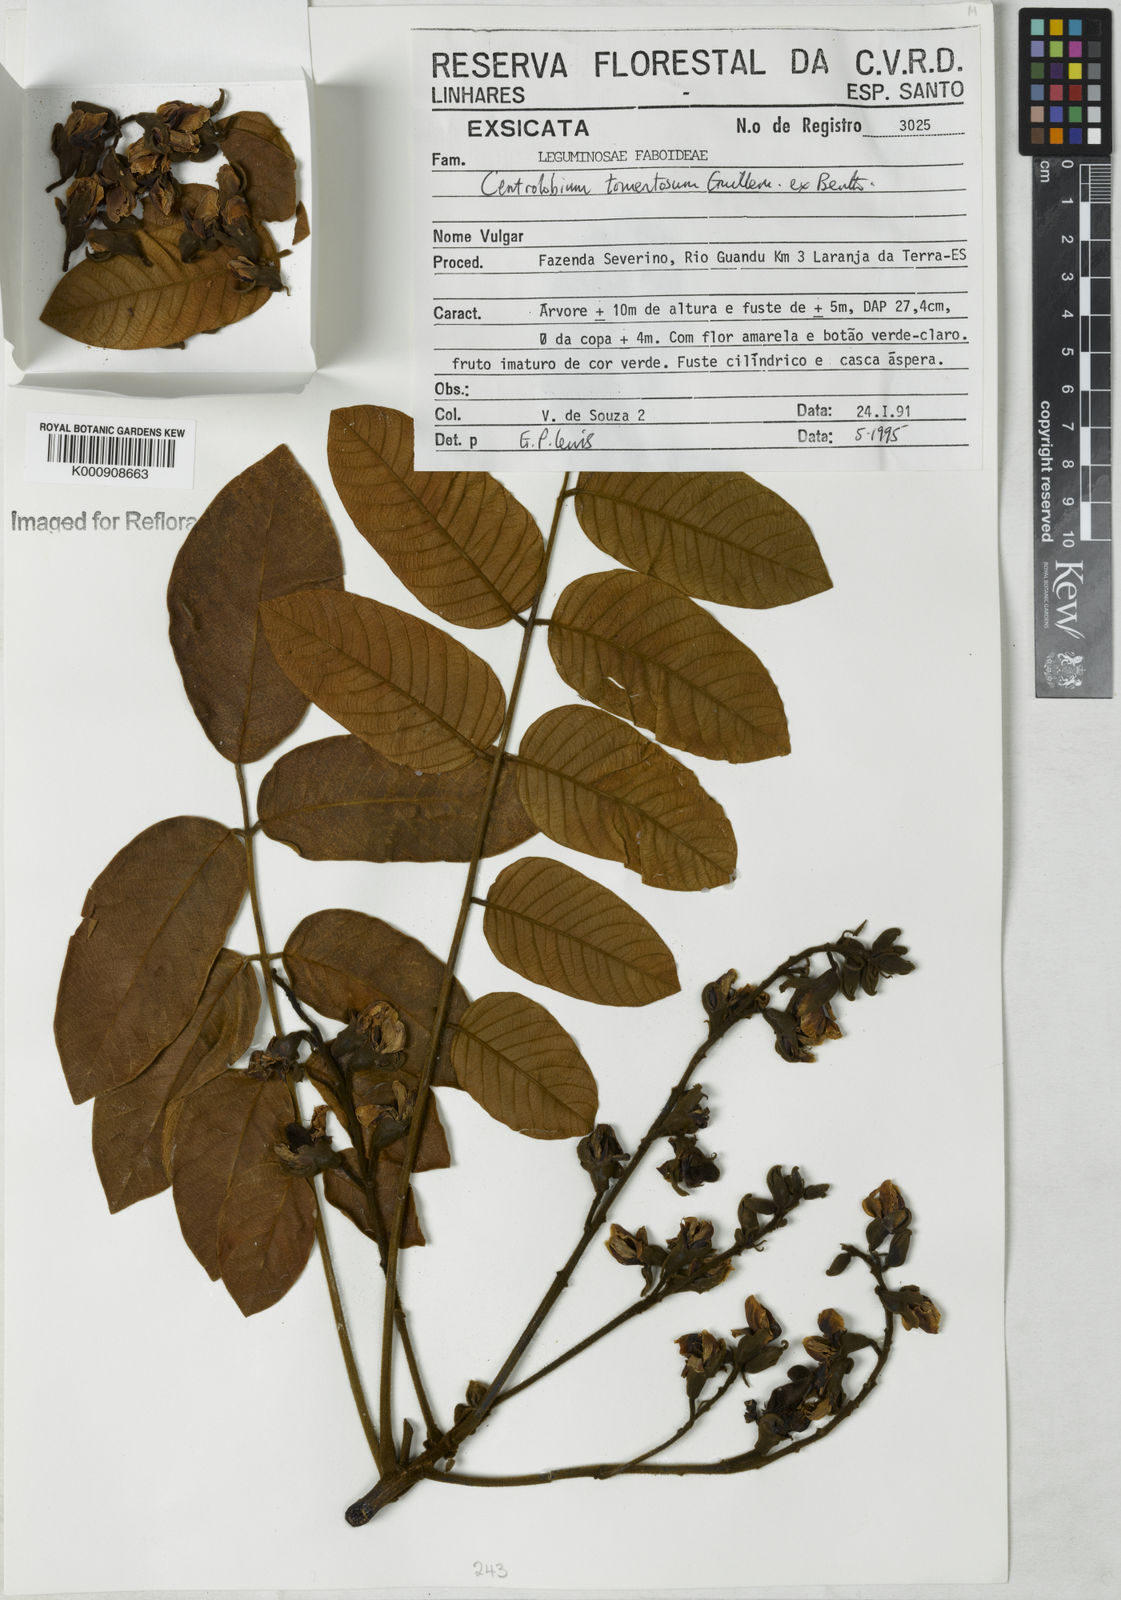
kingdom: Plantae
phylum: Tracheophyta
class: Magnoliopsida
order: Fabales
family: Fabaceae
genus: Centrolobium
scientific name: Centrolobium tomentosum
